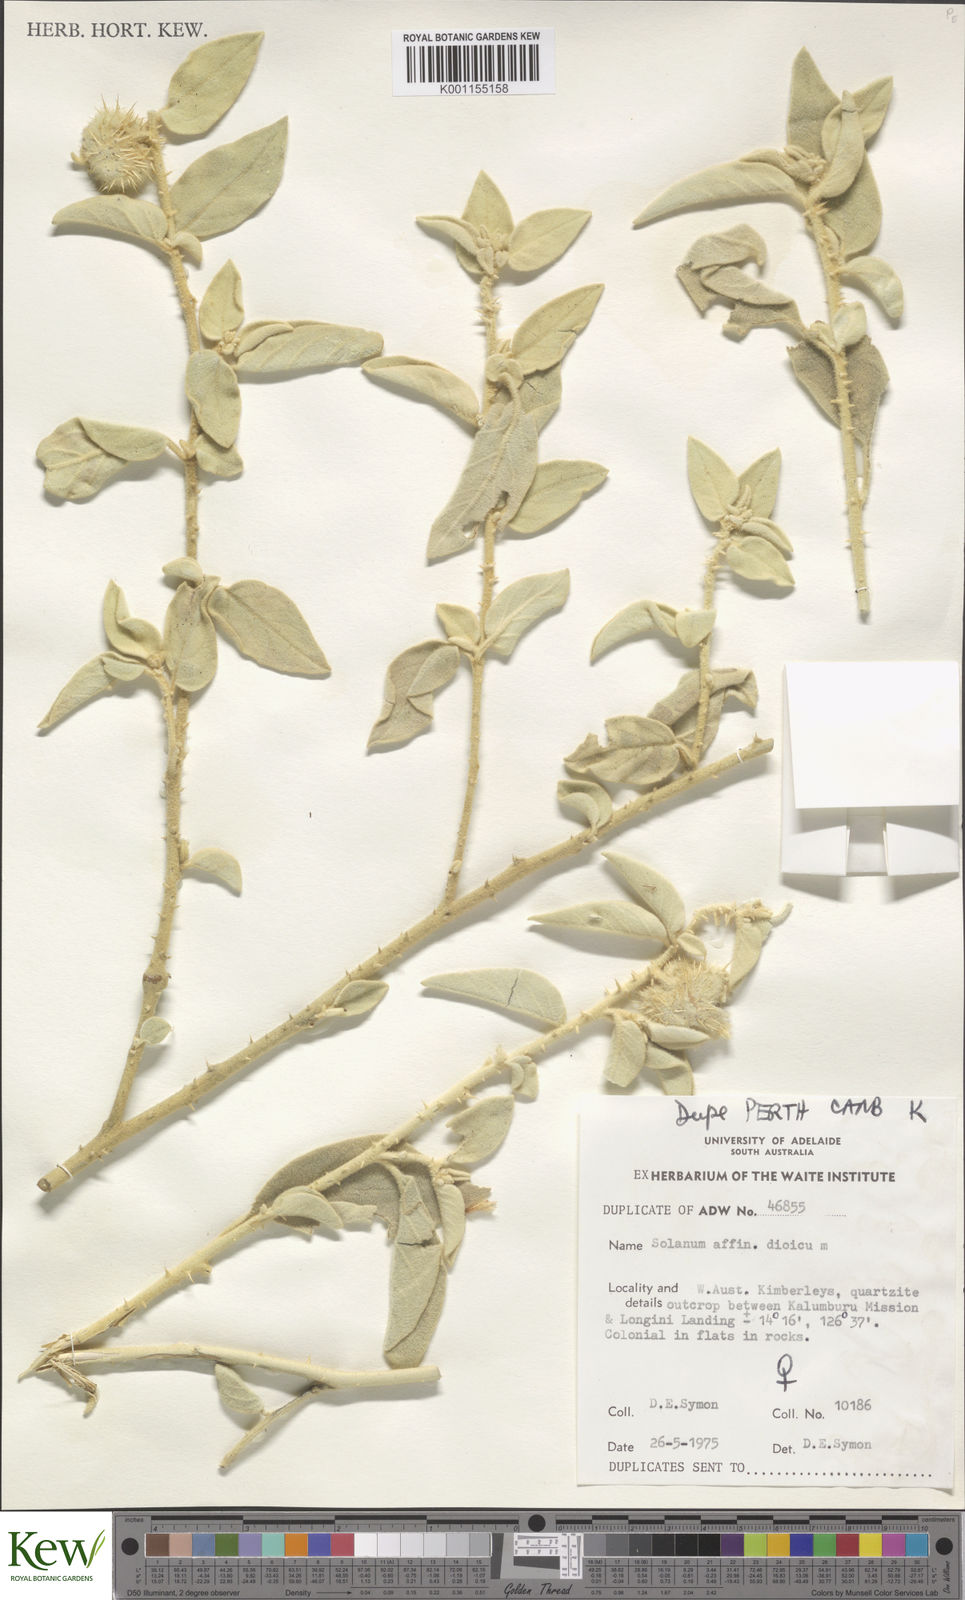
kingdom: Plantae
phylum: Tracheophyta
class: Magnoliopsida
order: Solanales
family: Solanaceae
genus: Solanum
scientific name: Solanum dioicum
